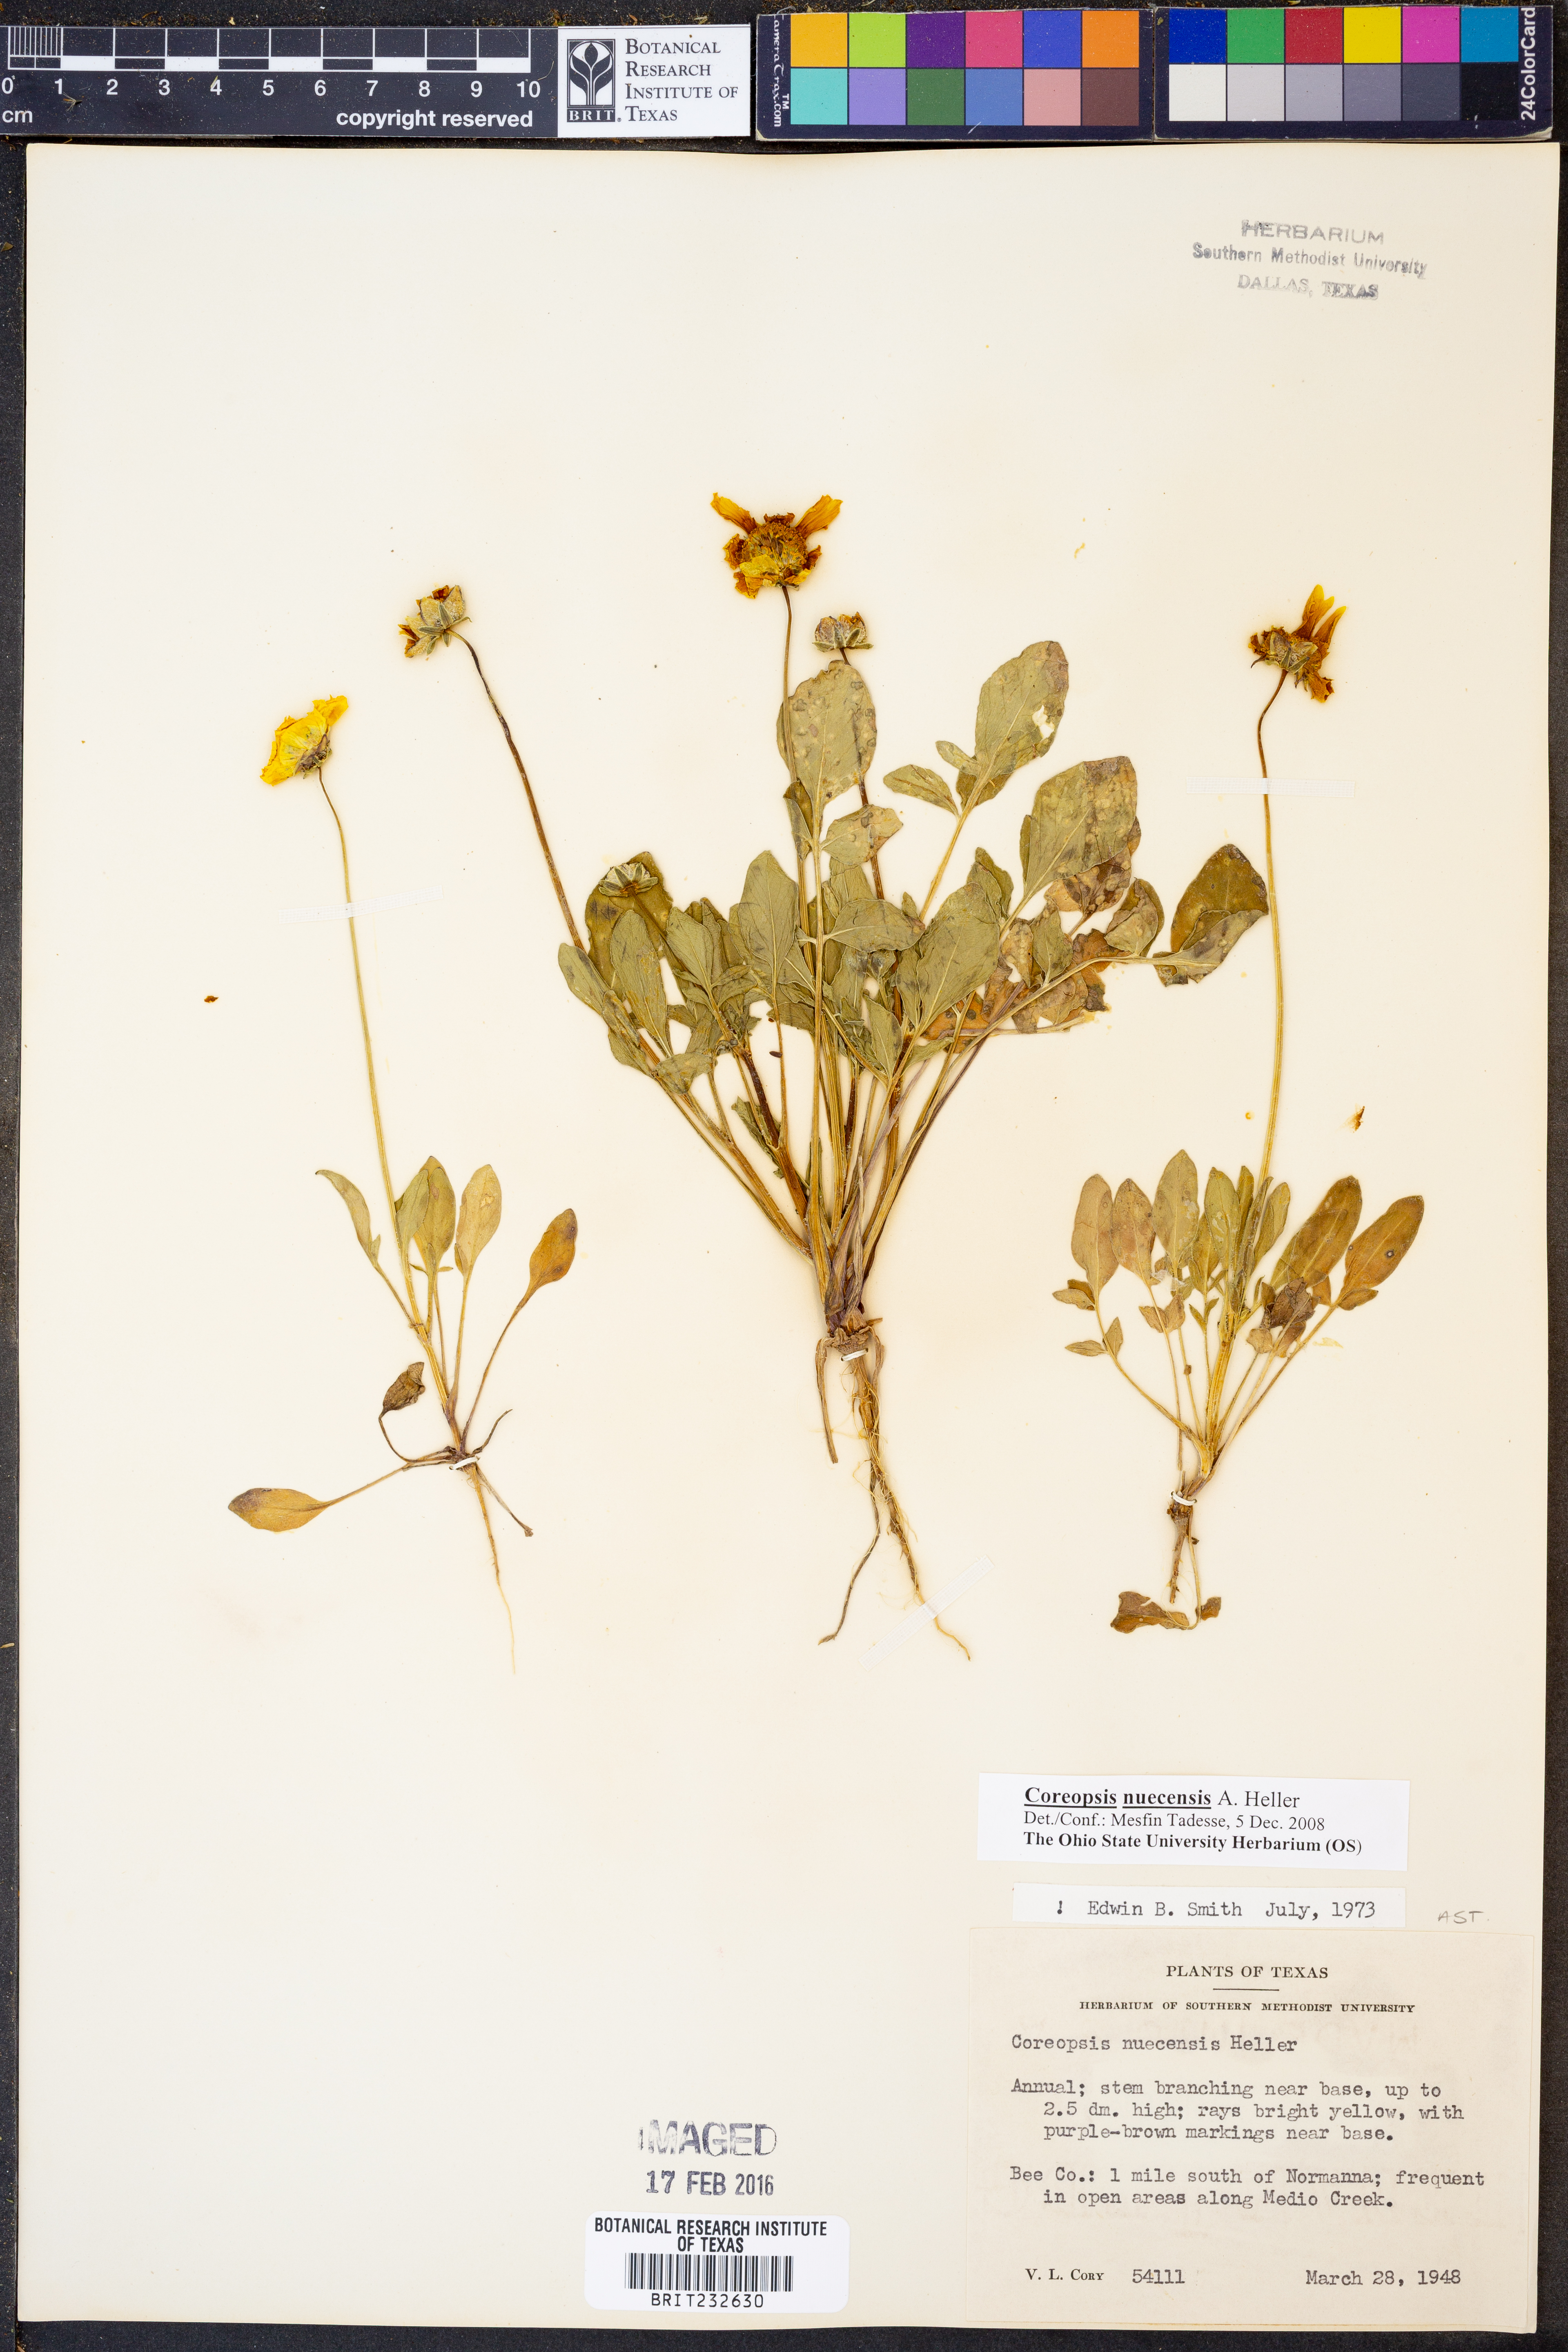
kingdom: Plantae
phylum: Tracheophyta
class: Magnoliopsida
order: Asterales
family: Asteraceae
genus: Coreopsis
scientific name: Coreopsis nuecensis
